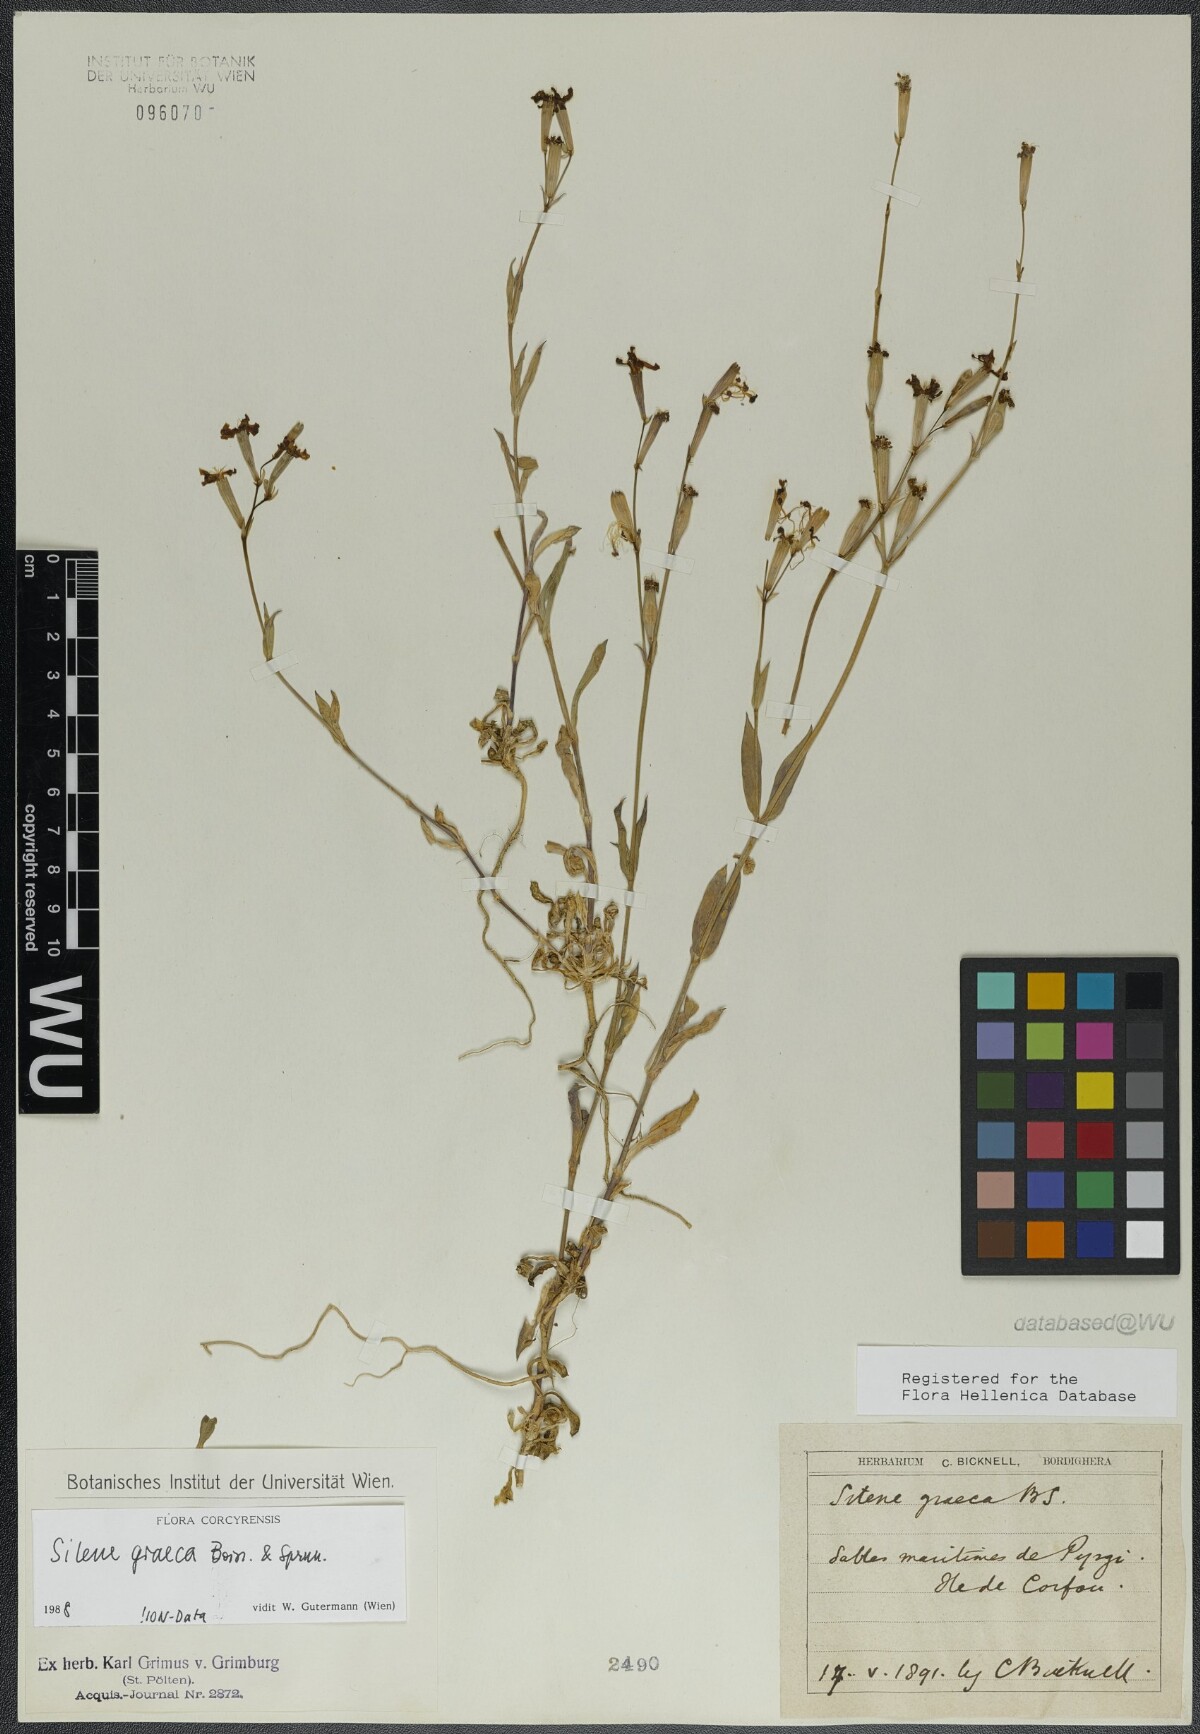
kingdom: Plantae
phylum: Tracheophyta
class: Magnoliopsida
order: Caryophyllales
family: Caryophyllaceae
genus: Silene
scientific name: Silene graeca
